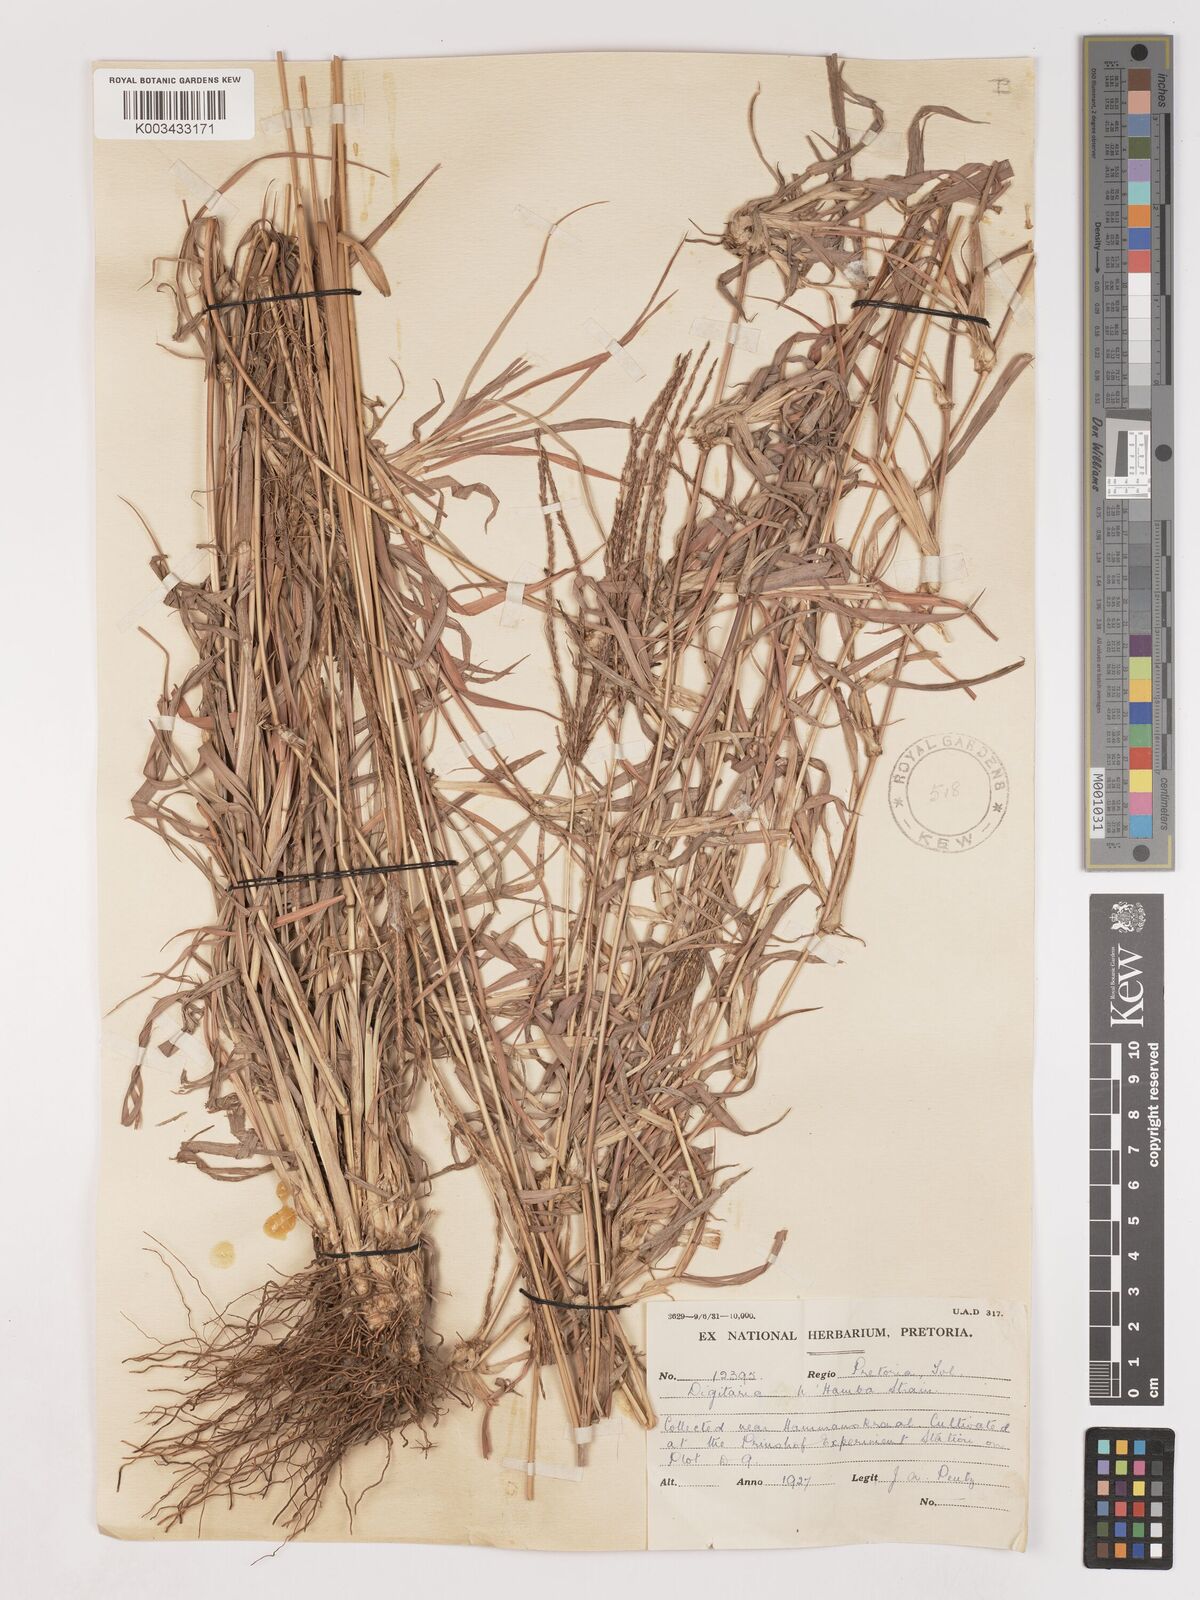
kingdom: Plantae
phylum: Tracheophyta
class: Liliopsida
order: Poales
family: Poaceae
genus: Digitaria
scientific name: Digitaria milanjiana
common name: Madagascar crabgrass
